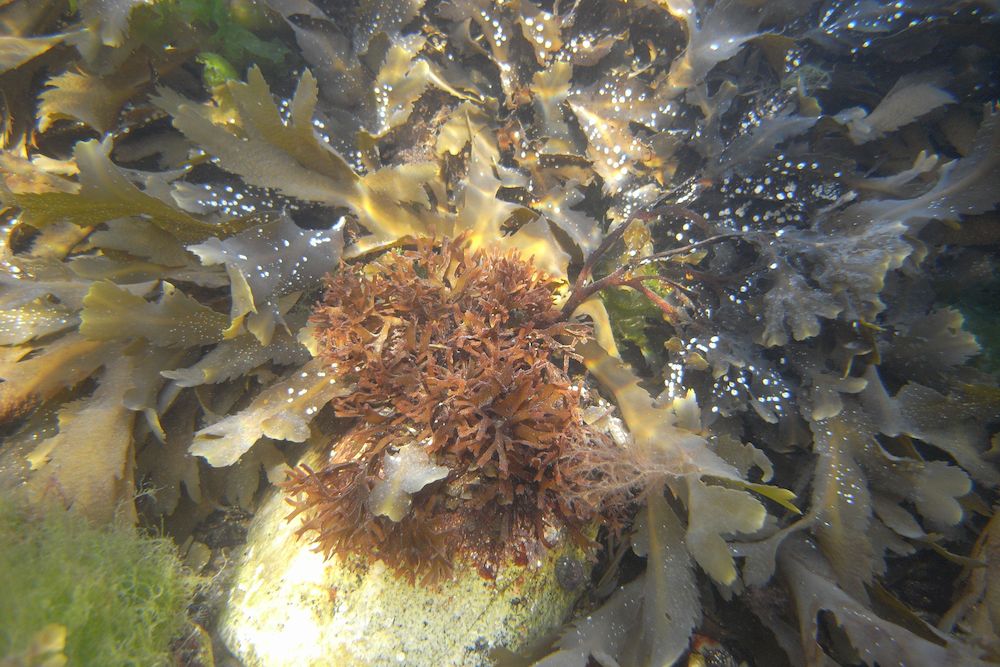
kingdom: Plantae
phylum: Rhodophyta
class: Florideophyceae
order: Gigartinales
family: Gigartinaceae
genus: Chondrus
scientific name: Chondrus crispus
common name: Carrageen
